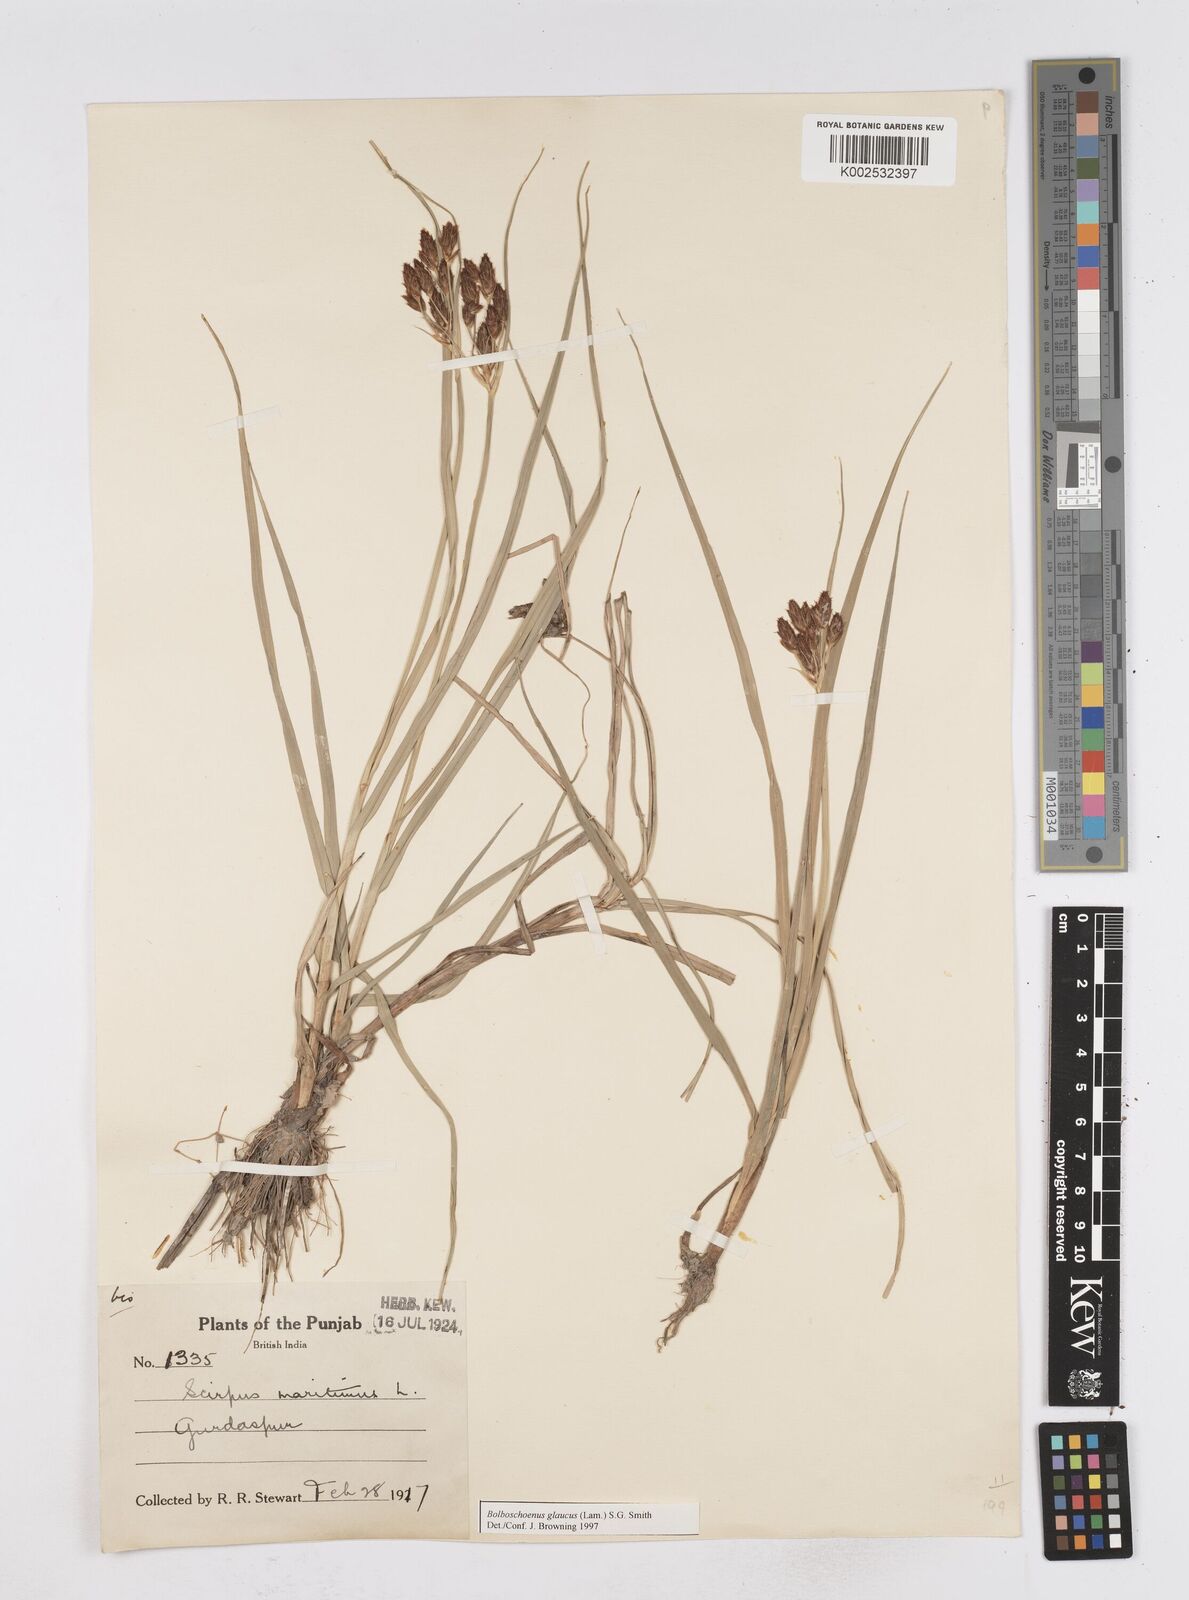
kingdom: Plantae
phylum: Tracheophyta
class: Liliopsida
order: Poales
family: Cyperaceae
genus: Bolboschoenus
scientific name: Bolboschoenus maritimus
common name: Sea club-rush
